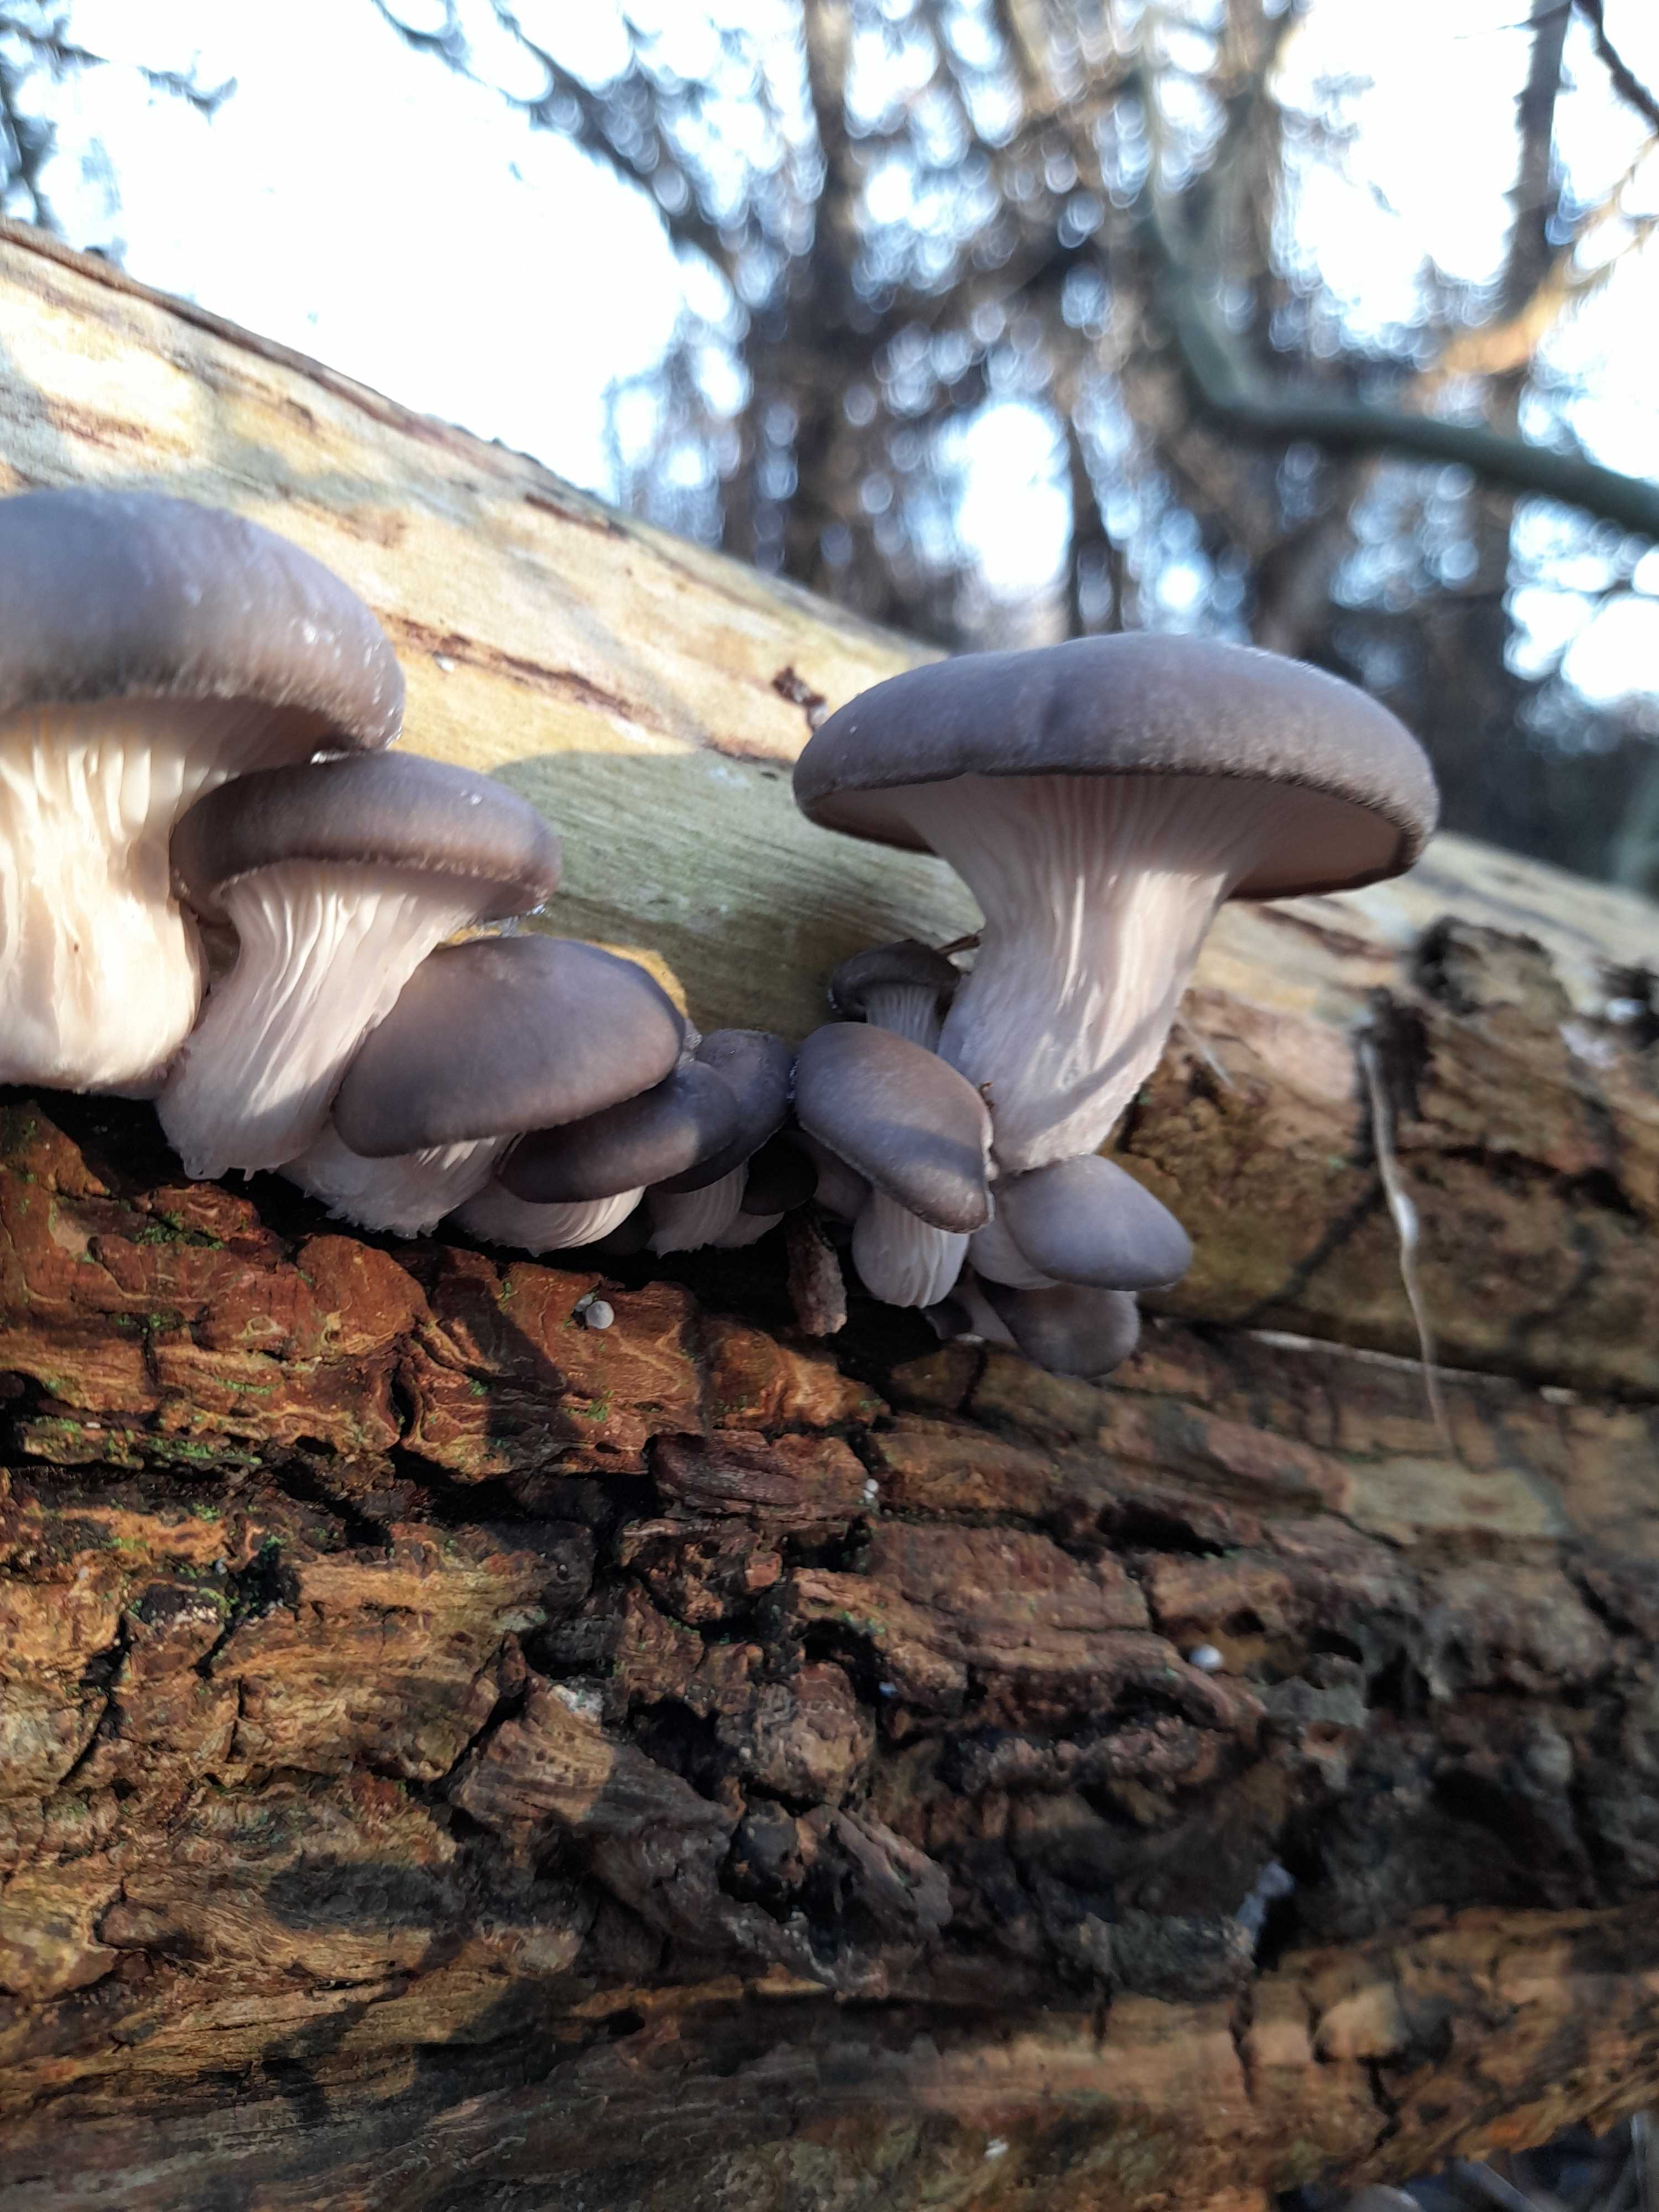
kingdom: Fungi
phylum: Basidiomycota
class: Agaricomycetes
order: Agaricales
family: Pleurotaceae
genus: Pleurotus
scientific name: Pleurotus ostreatus
